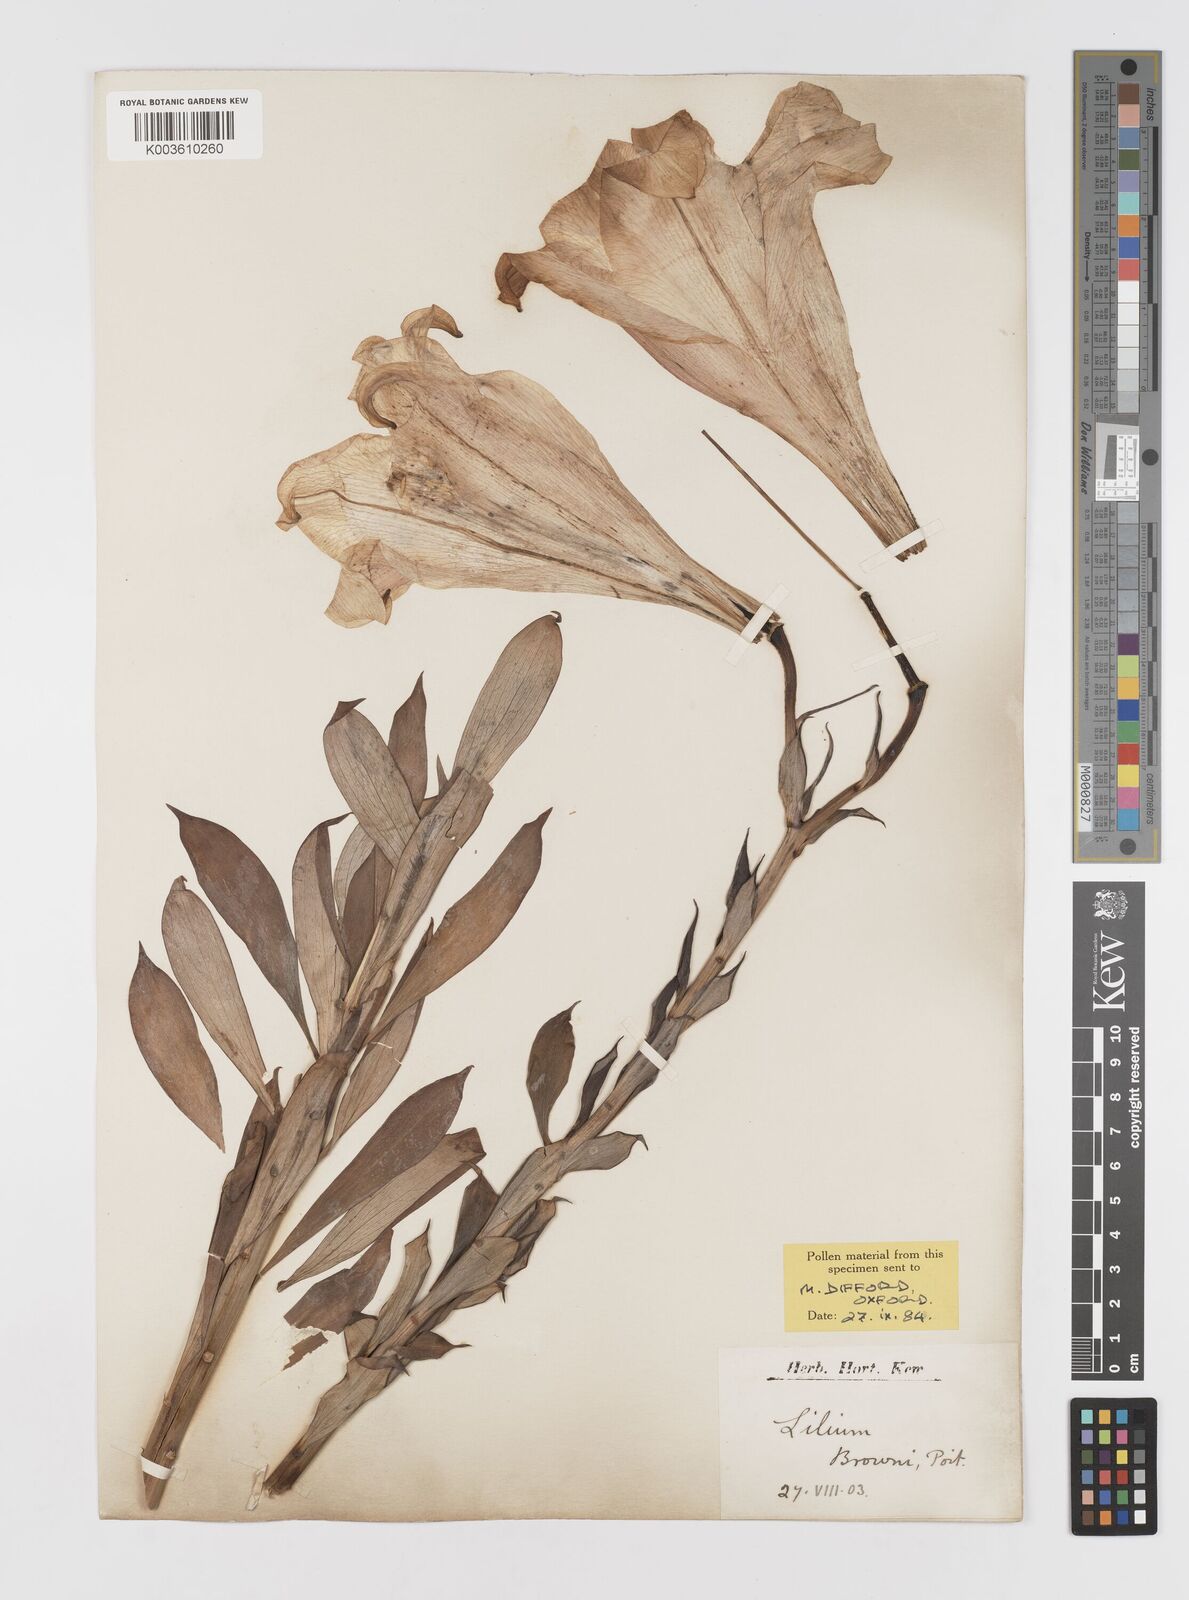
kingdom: Plantae
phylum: Tracheophyta
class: Liliopsida
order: Liliales
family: Liliaceae
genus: Lilium
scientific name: Lilium
